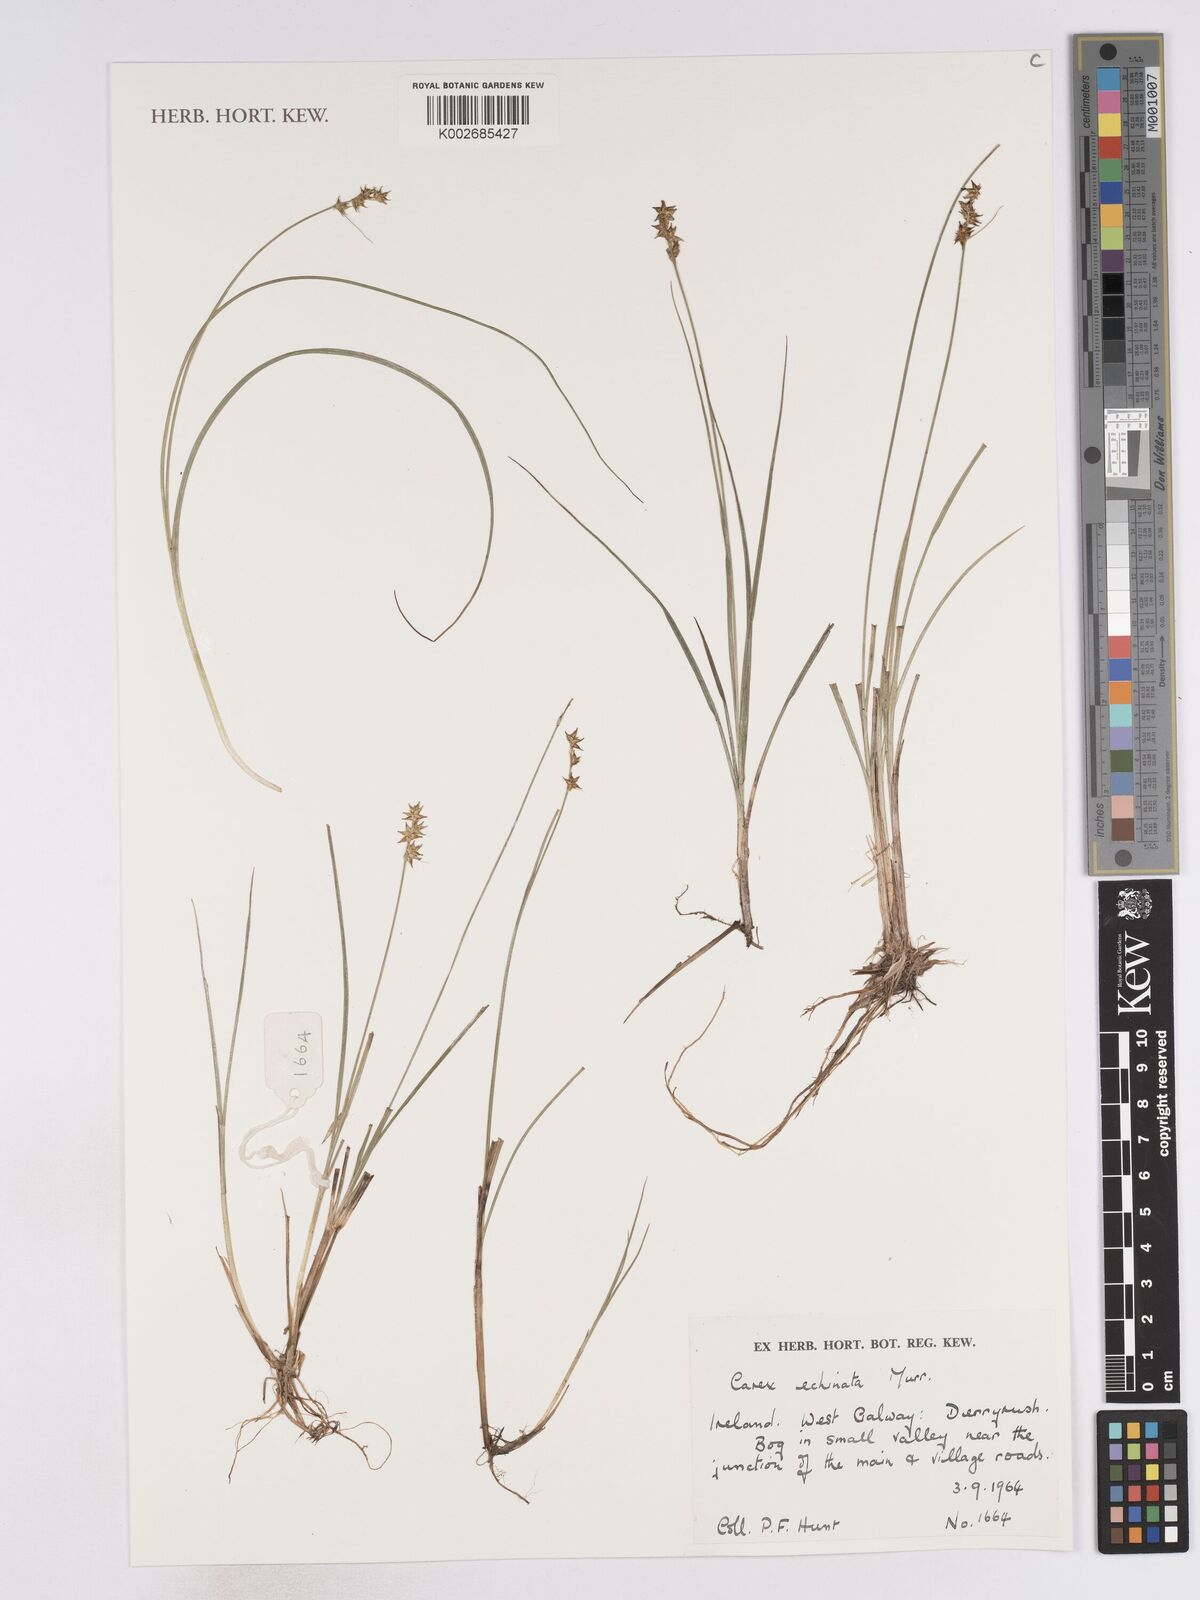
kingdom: Plantae
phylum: Tracheophyta
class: Liliopsida
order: Poales
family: Cyperaceae
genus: Carex
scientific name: Carex echinata
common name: Star sedge
